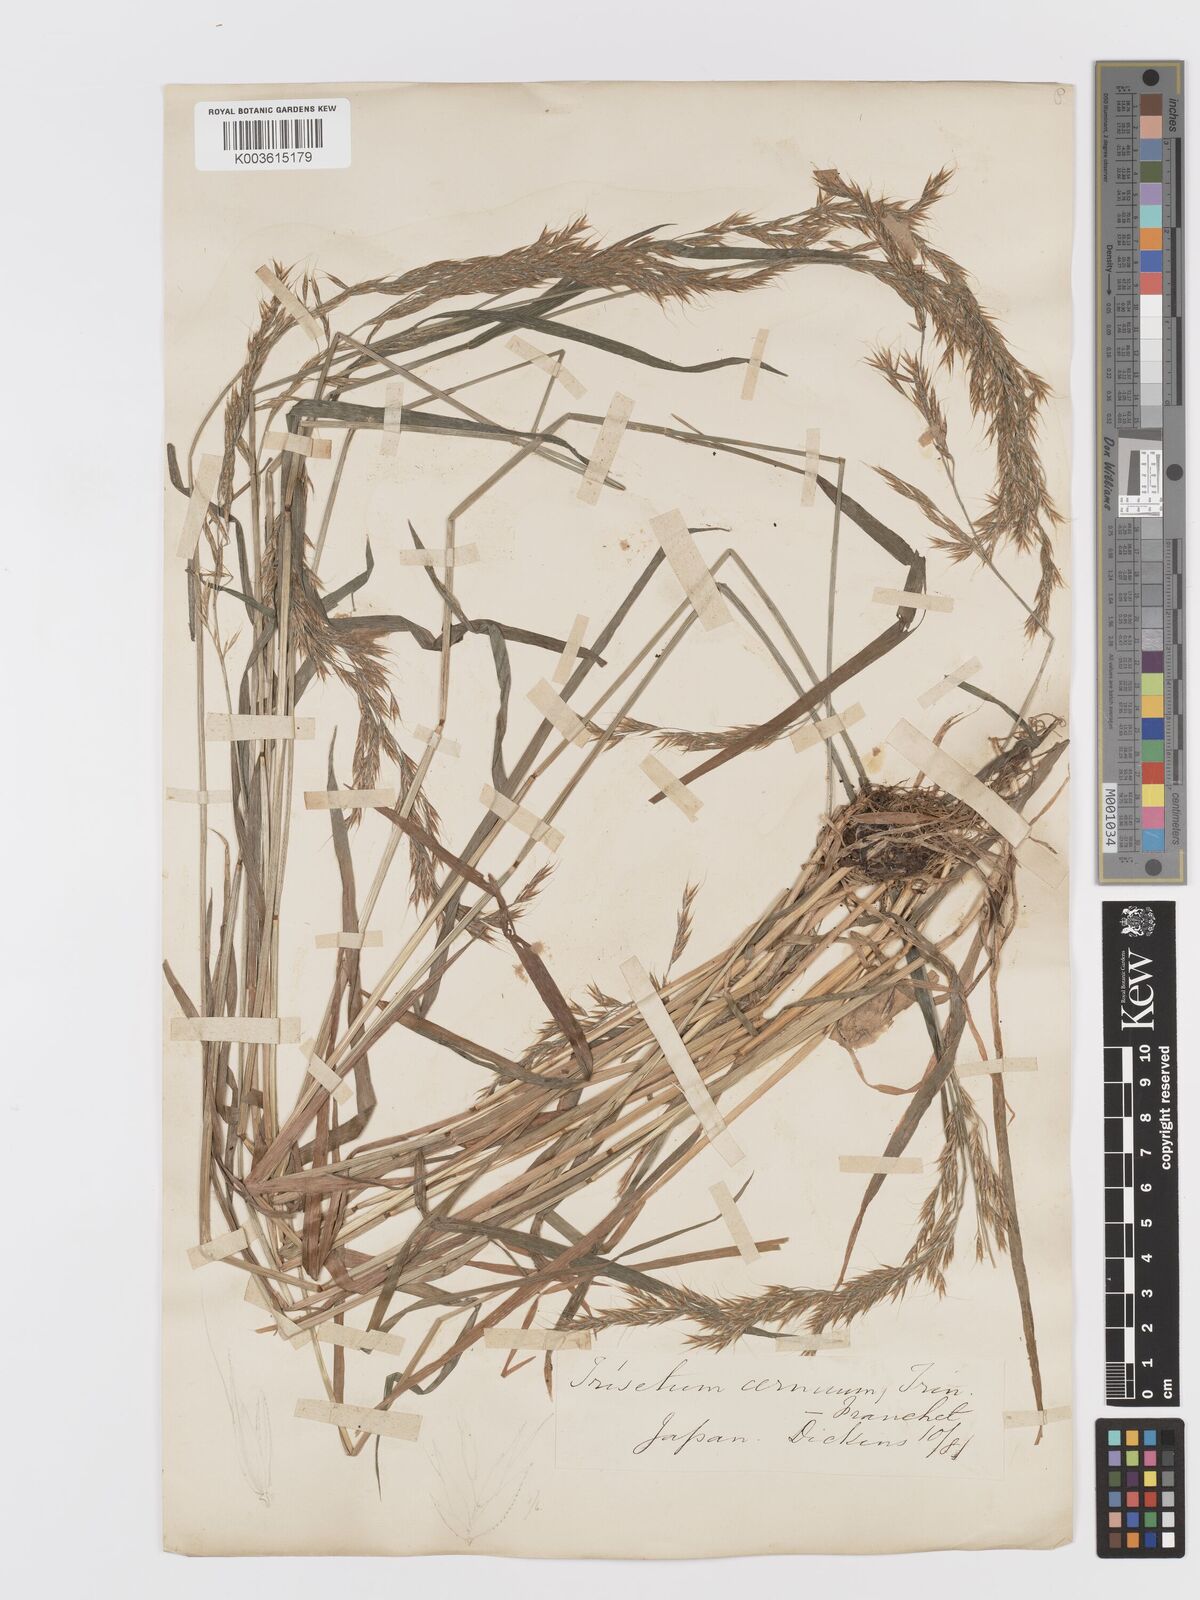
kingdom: Plantae
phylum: Tracheophyta
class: Liliopsida
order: Poales
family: Poaceae
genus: Sibirotrisetum
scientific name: Sibirotrisetum bifidum
